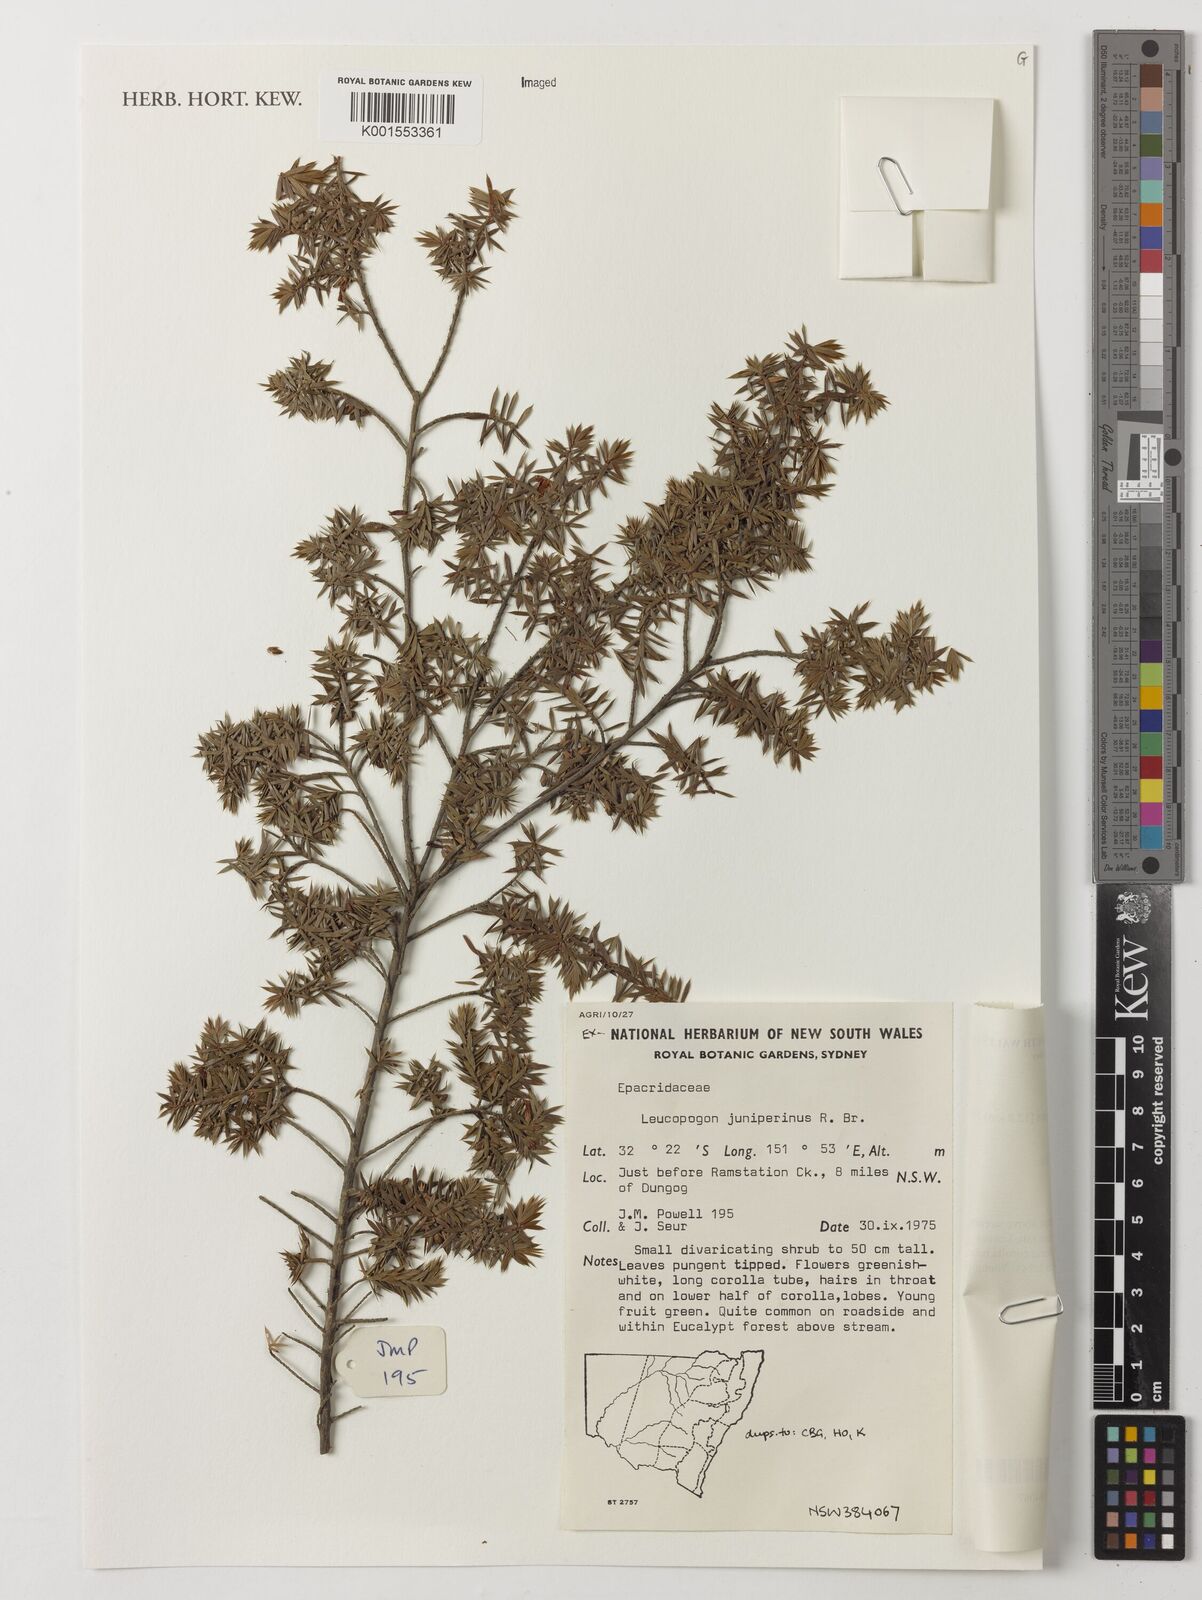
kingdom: Plantae
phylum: Tracheophyta
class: Magnoliopsida
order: Ericales
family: Ericaceae
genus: Styphelia
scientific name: Styphelia sieberi
